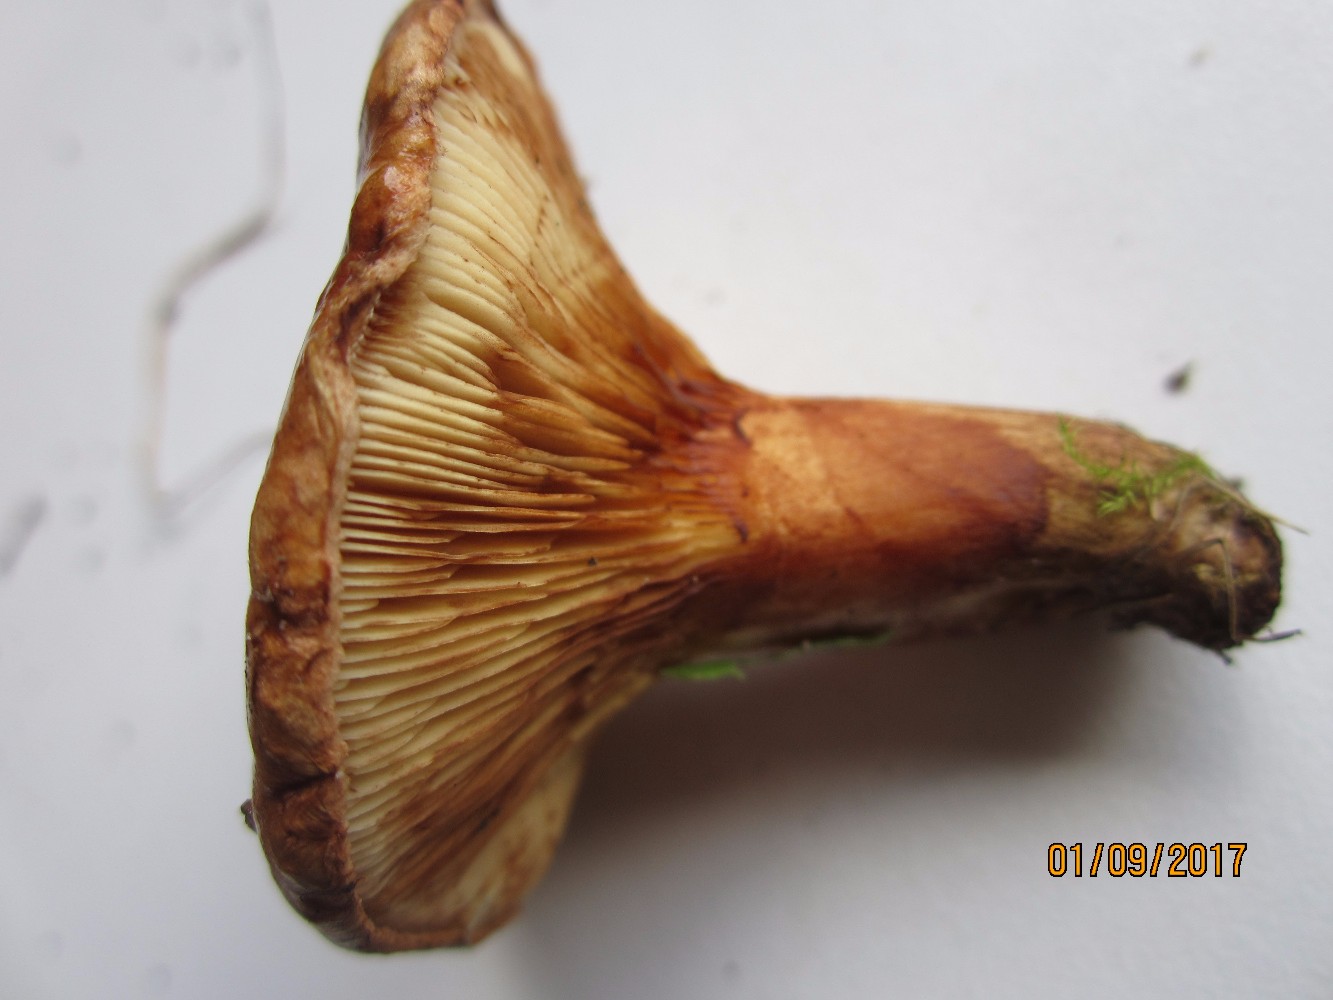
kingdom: Fungi
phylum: Basidiomycota
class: Agaricomycetes
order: Boletales
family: Paxillaceae
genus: Paxillus
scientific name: Paxillus involutus
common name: almindelig netbladhat
